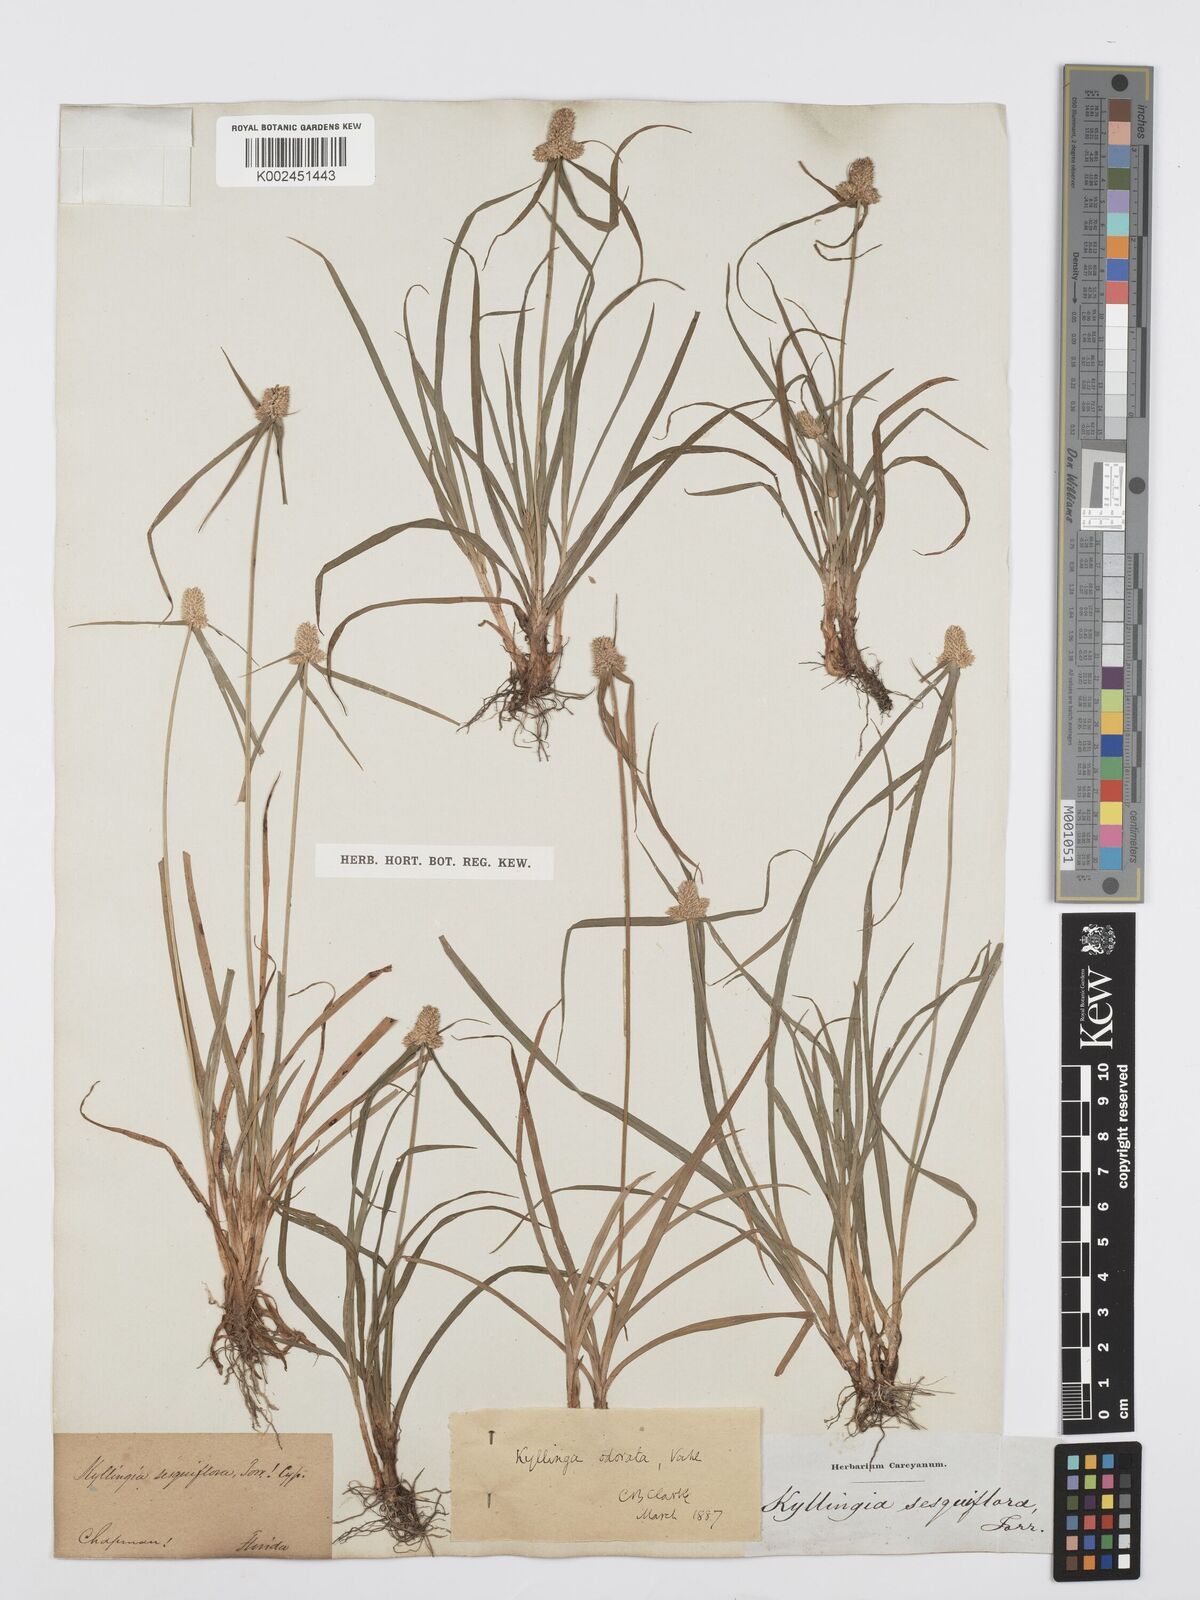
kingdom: Plantae
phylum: Tracheophyta
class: Liliopsida
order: Poales
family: Cyperaceae
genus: Cyperus
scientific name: Cyperus
